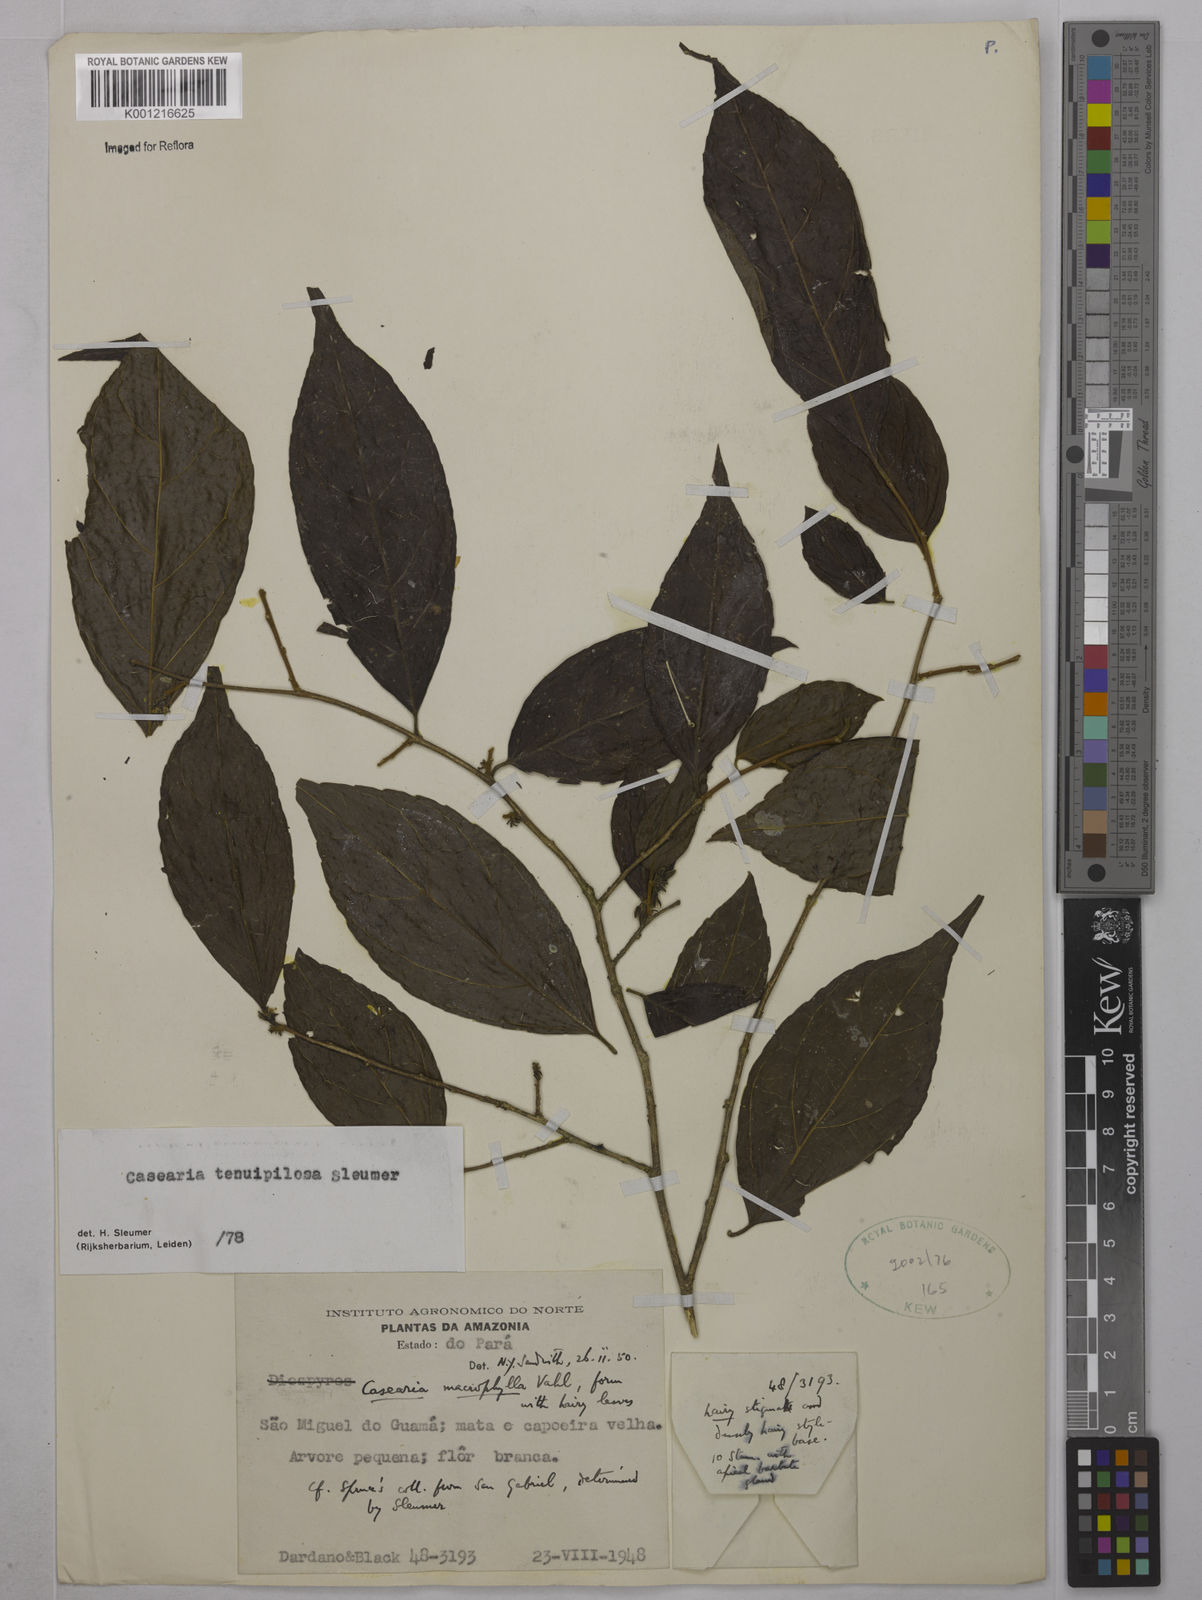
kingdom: Plantae
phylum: Tracheophyta
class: Magnoliopsida
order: Malpighiales
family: Salicaceae
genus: Casearia
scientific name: Casearia tenuipilosa
